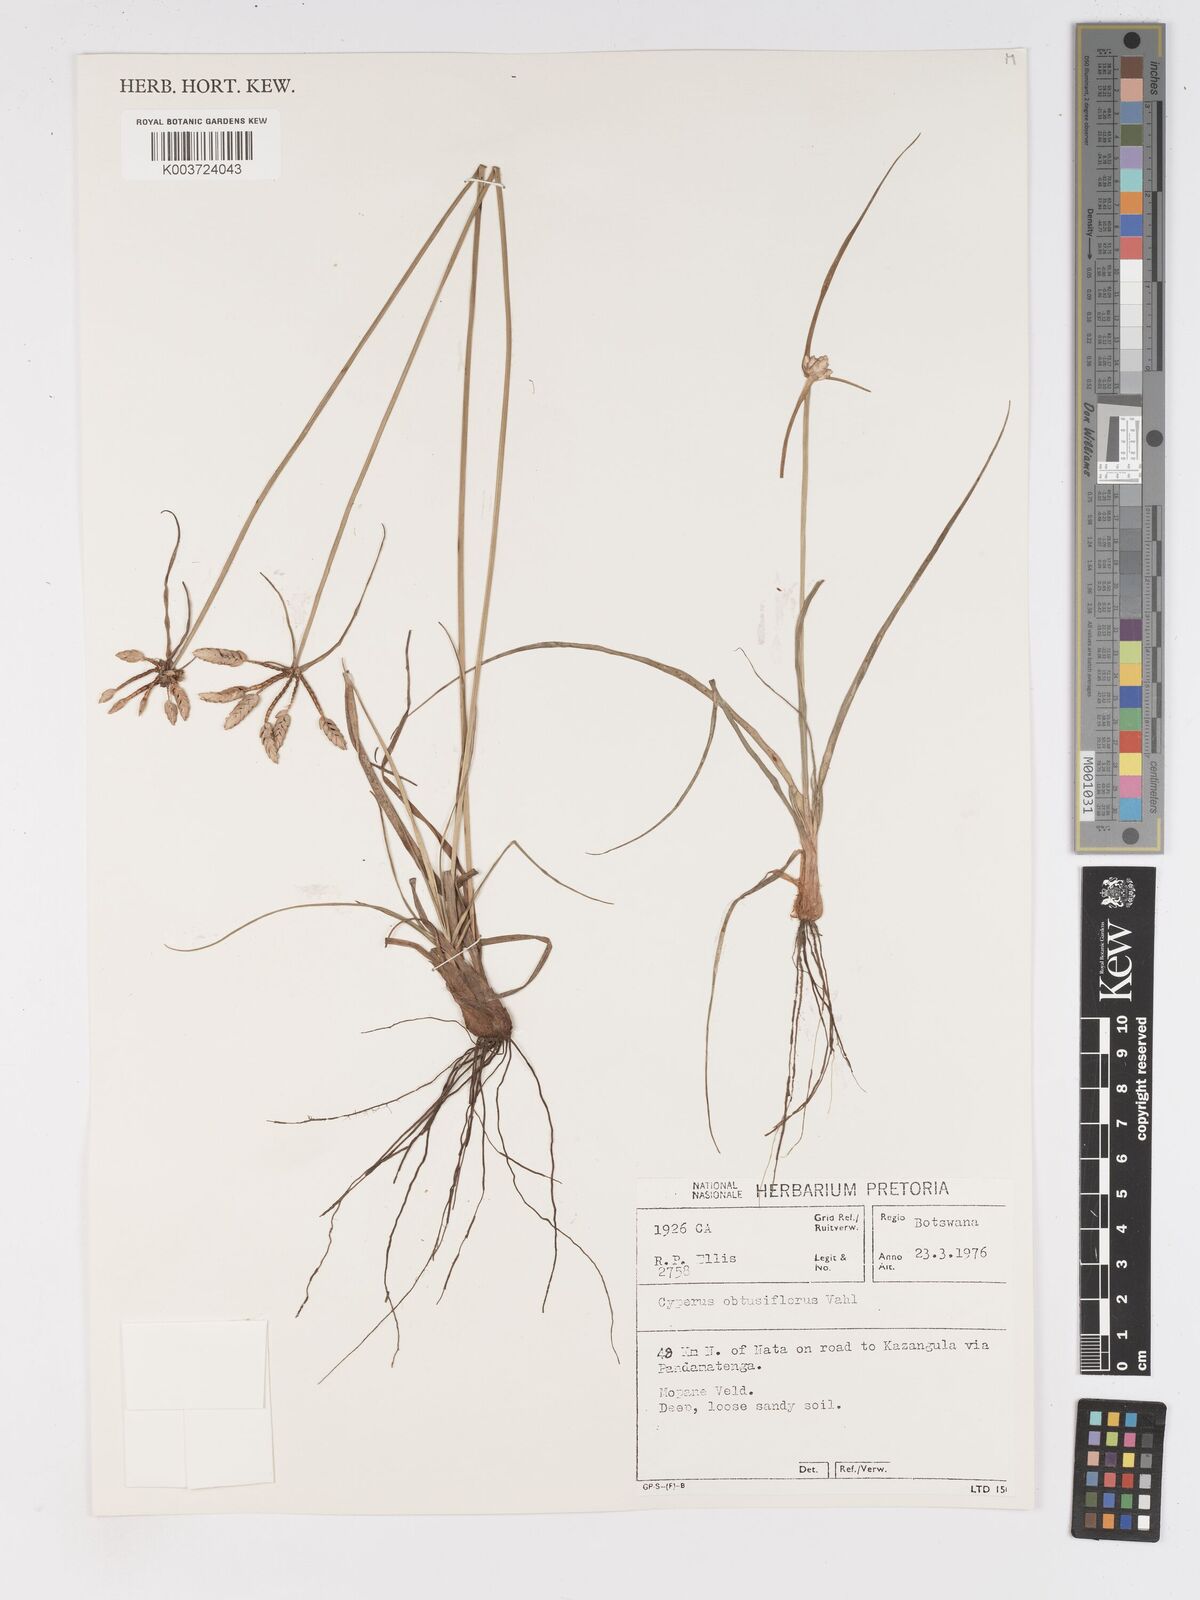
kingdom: Plantae
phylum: Tracheophyta
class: Liliopsida
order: Poales
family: Cyperaceae
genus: Cyperus
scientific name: Cyperus niveus
